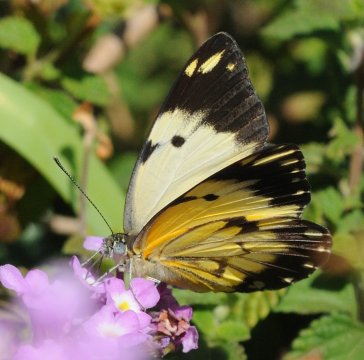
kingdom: Animalia
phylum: Arthropoda
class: Insecta
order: Lepidoptera
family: Pieridae
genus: Belenois
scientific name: Belenois creona
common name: African Caper
